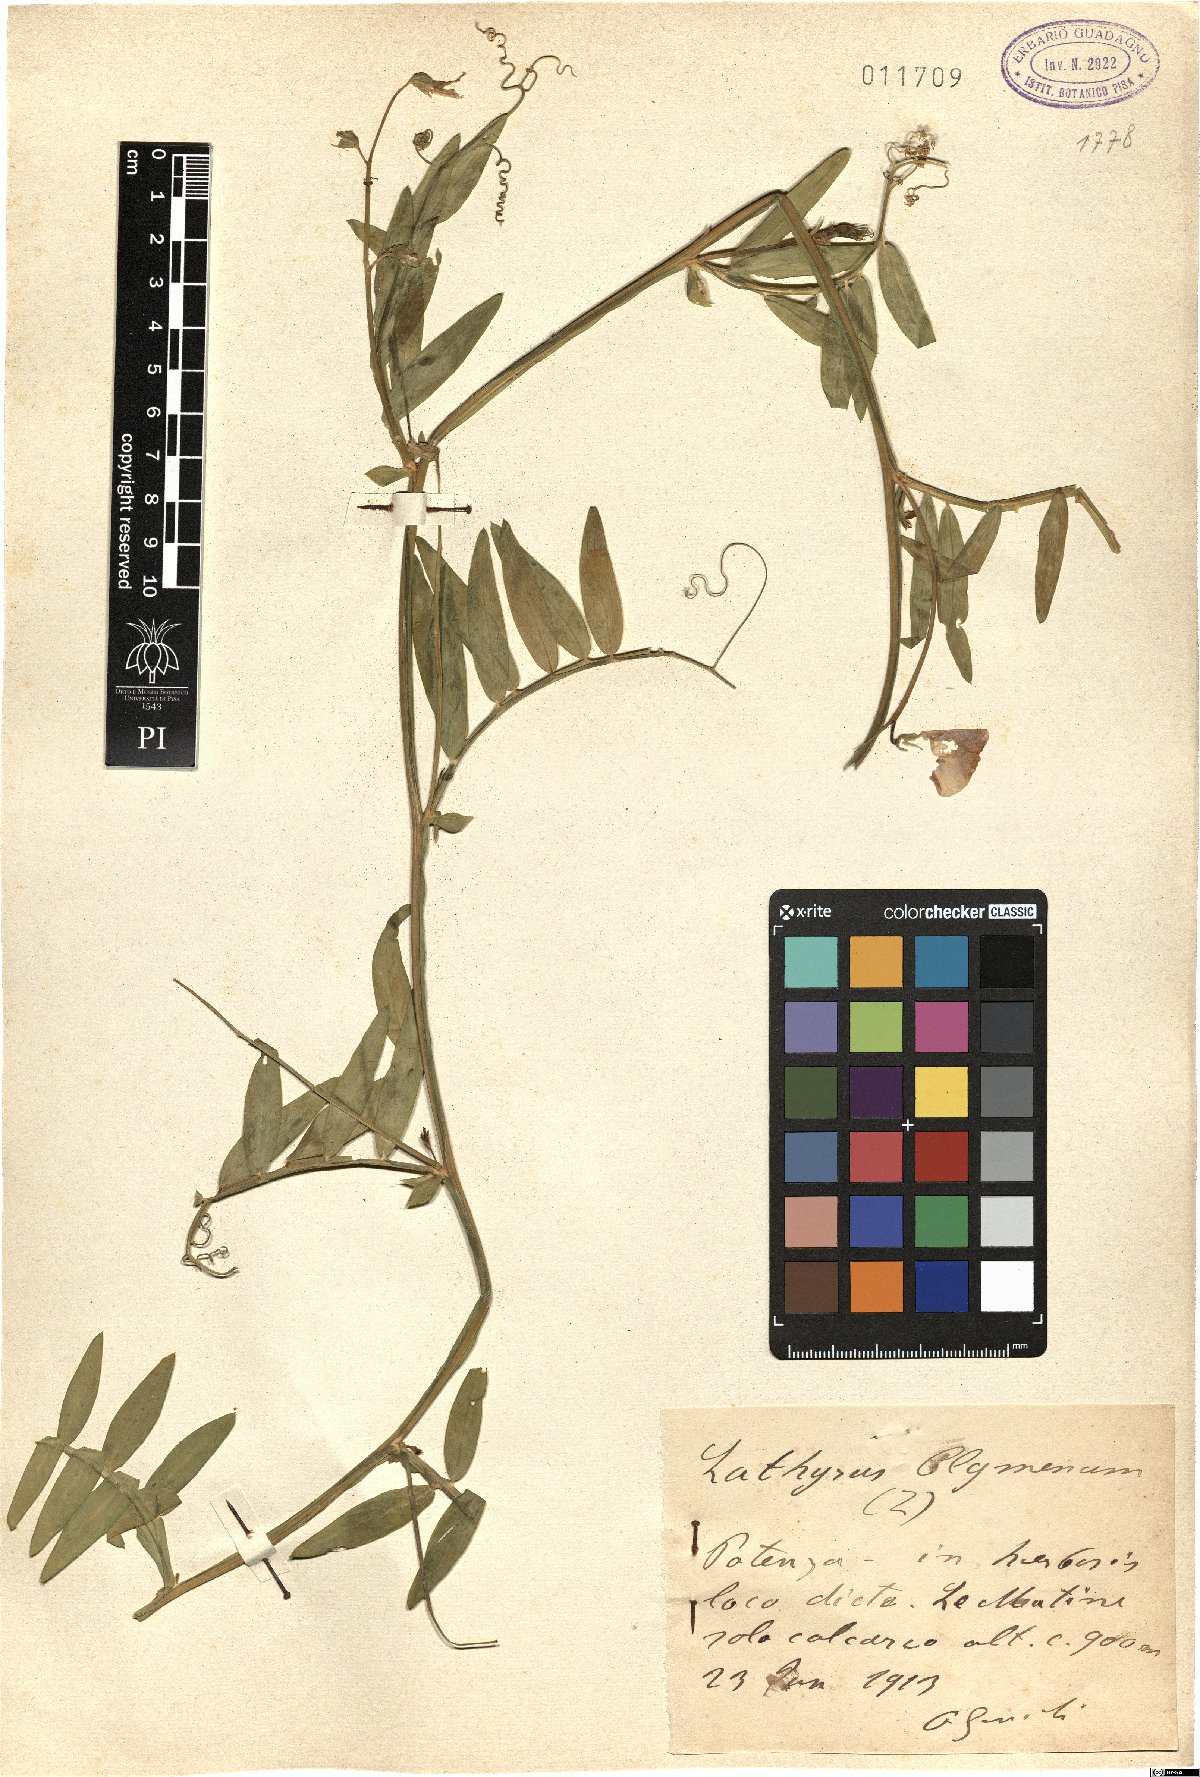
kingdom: Plantae
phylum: Tracheophyta
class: Magnoliopsida
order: Fabales
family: Fabaceae
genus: Lathyrus
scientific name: Lathyrus clymenum
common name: Spanish vetchling
